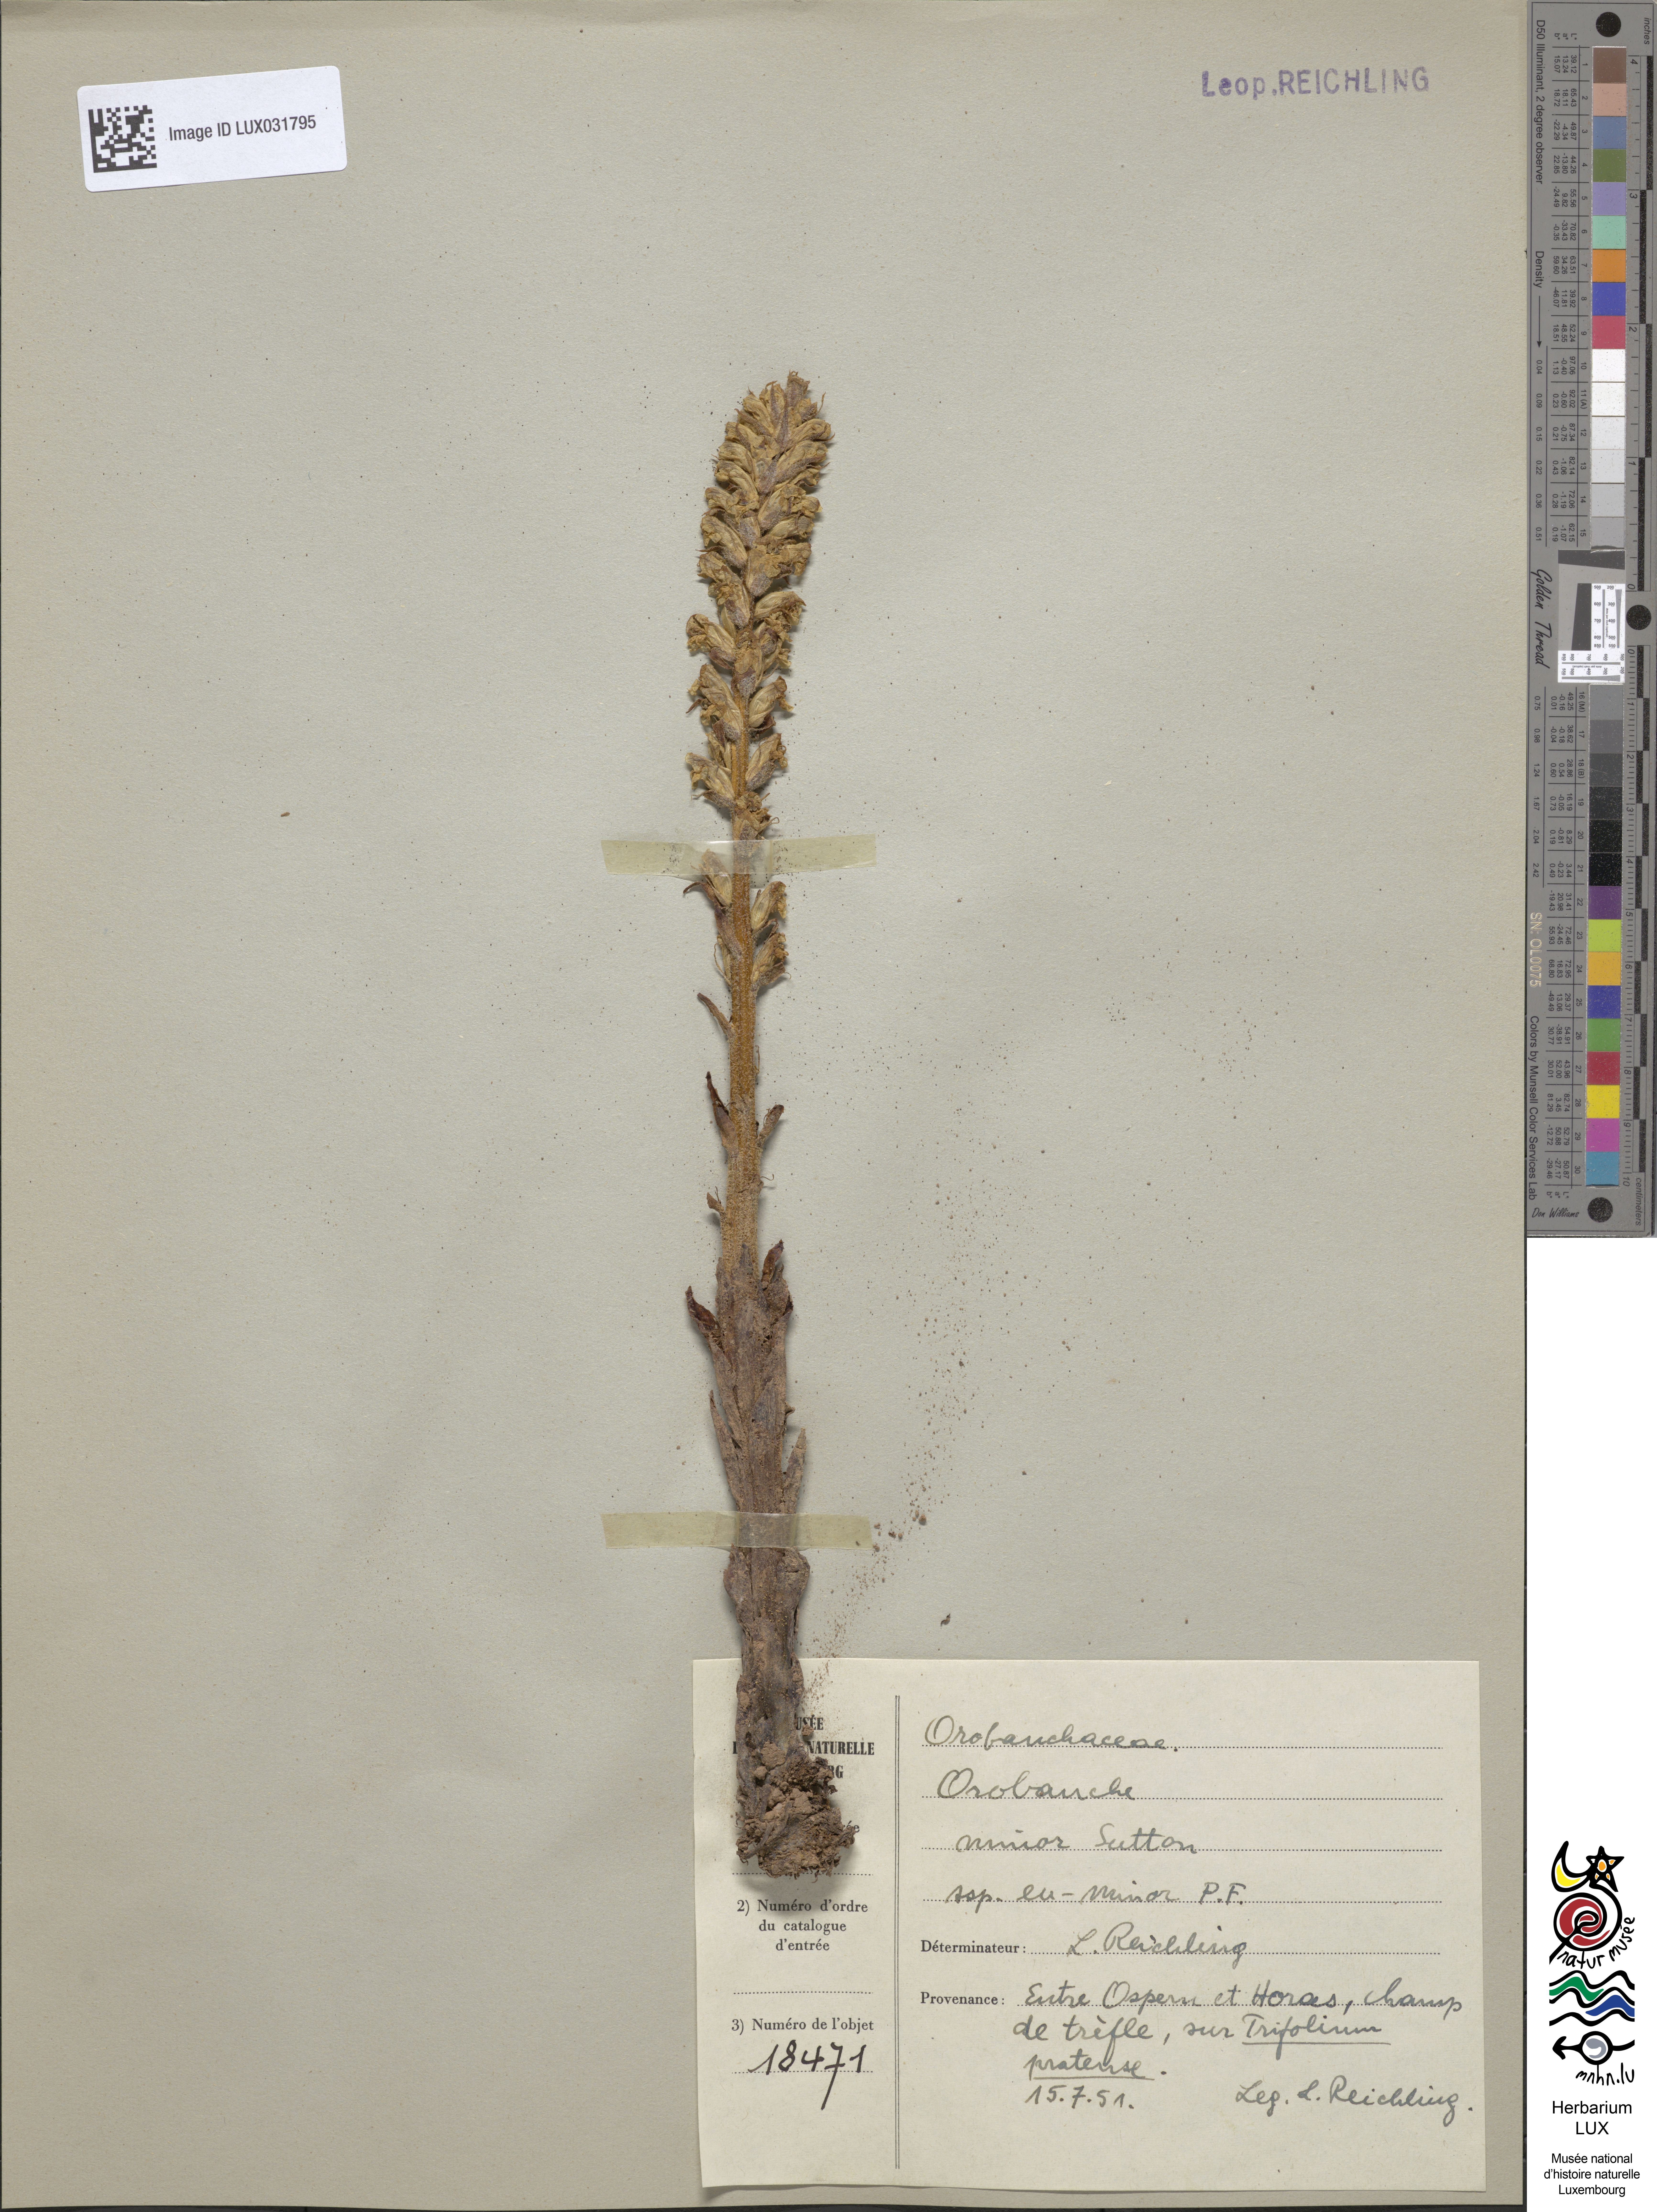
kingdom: Plantae
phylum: Tracheophyta
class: Magnoliopsida
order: Lamiales
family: Orobanchaceae
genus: Orobanche
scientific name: Orobanche minor
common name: Common broomrape
